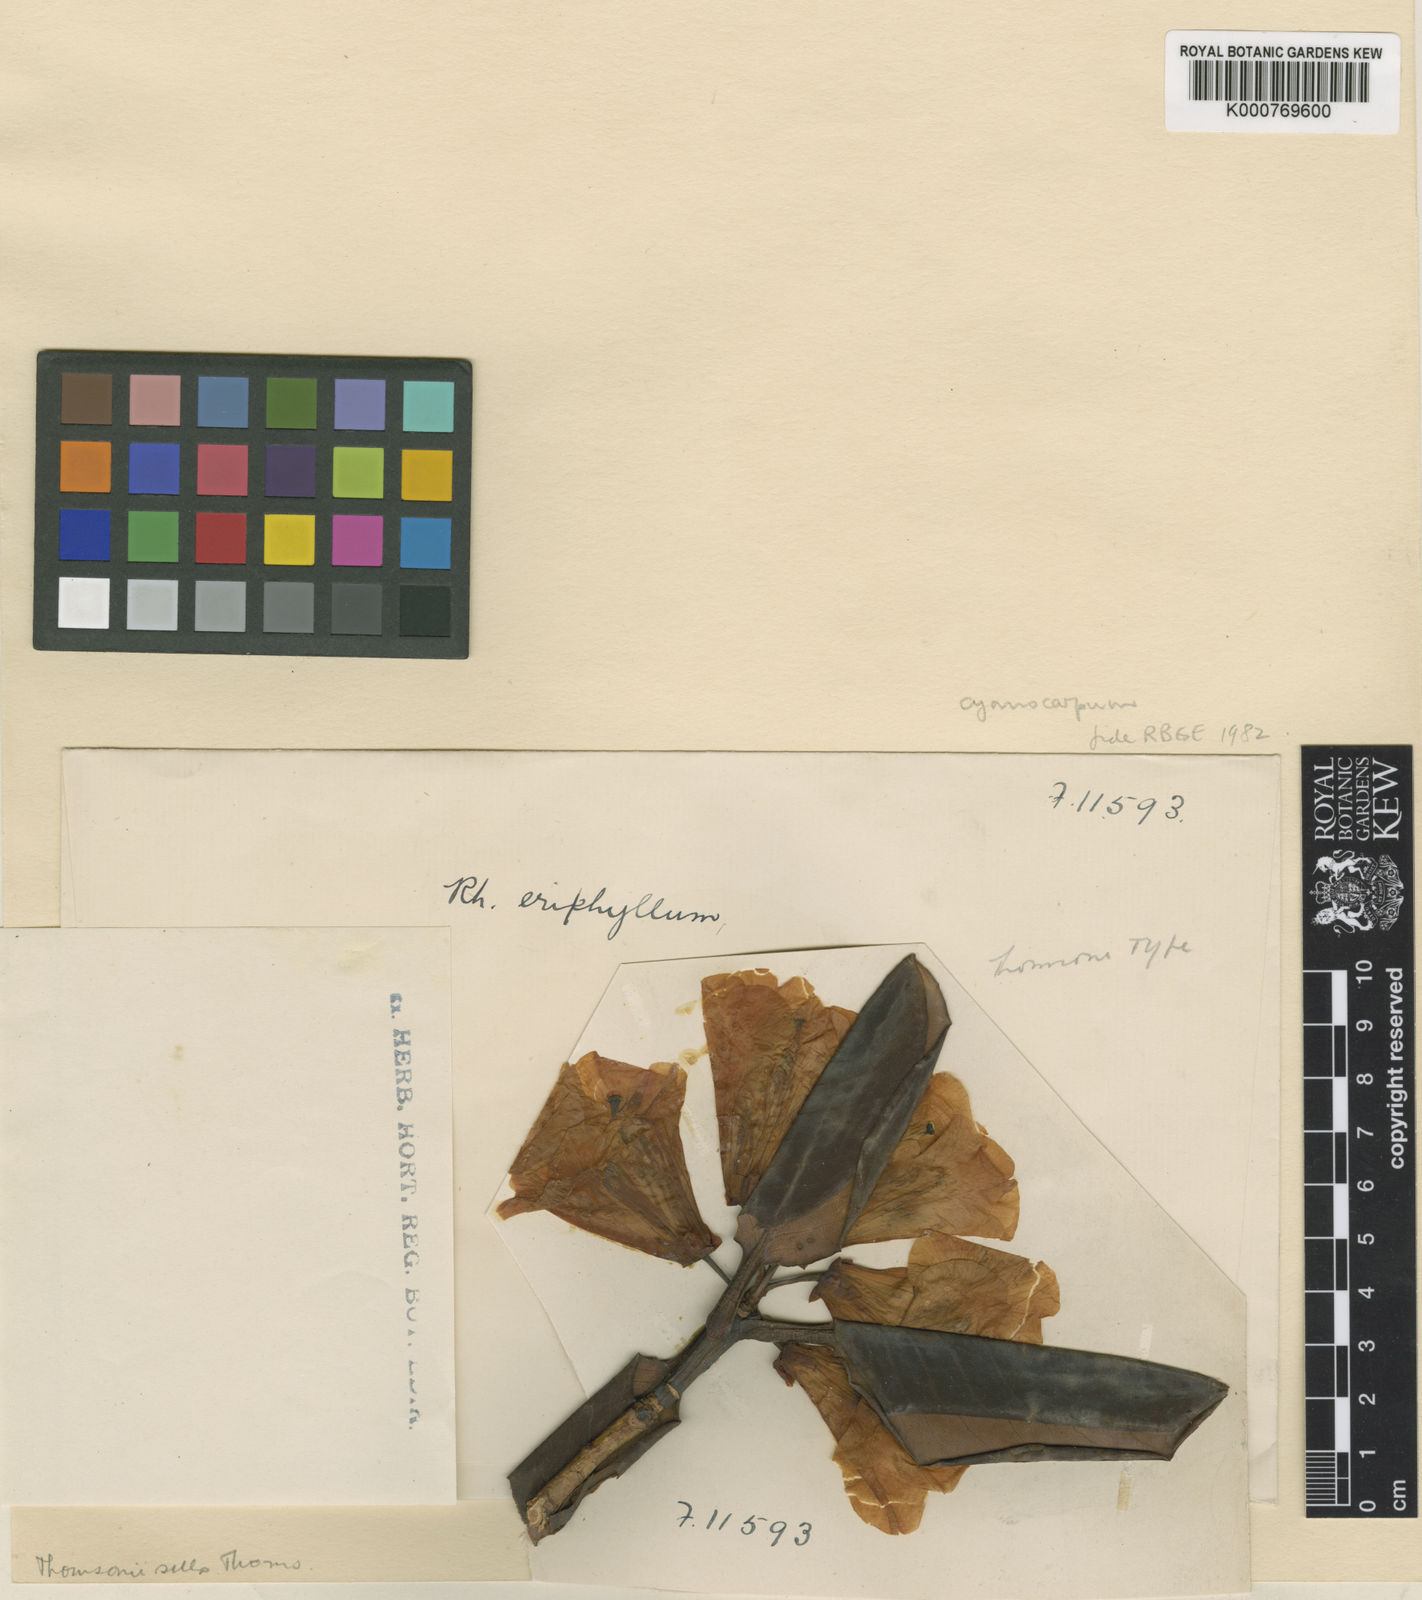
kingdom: Plantae
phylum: Tracheophyta
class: Magnoliopsida
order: Ericales
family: Ericaceae
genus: Rhododendron
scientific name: Rhododendron cyanocarpum
